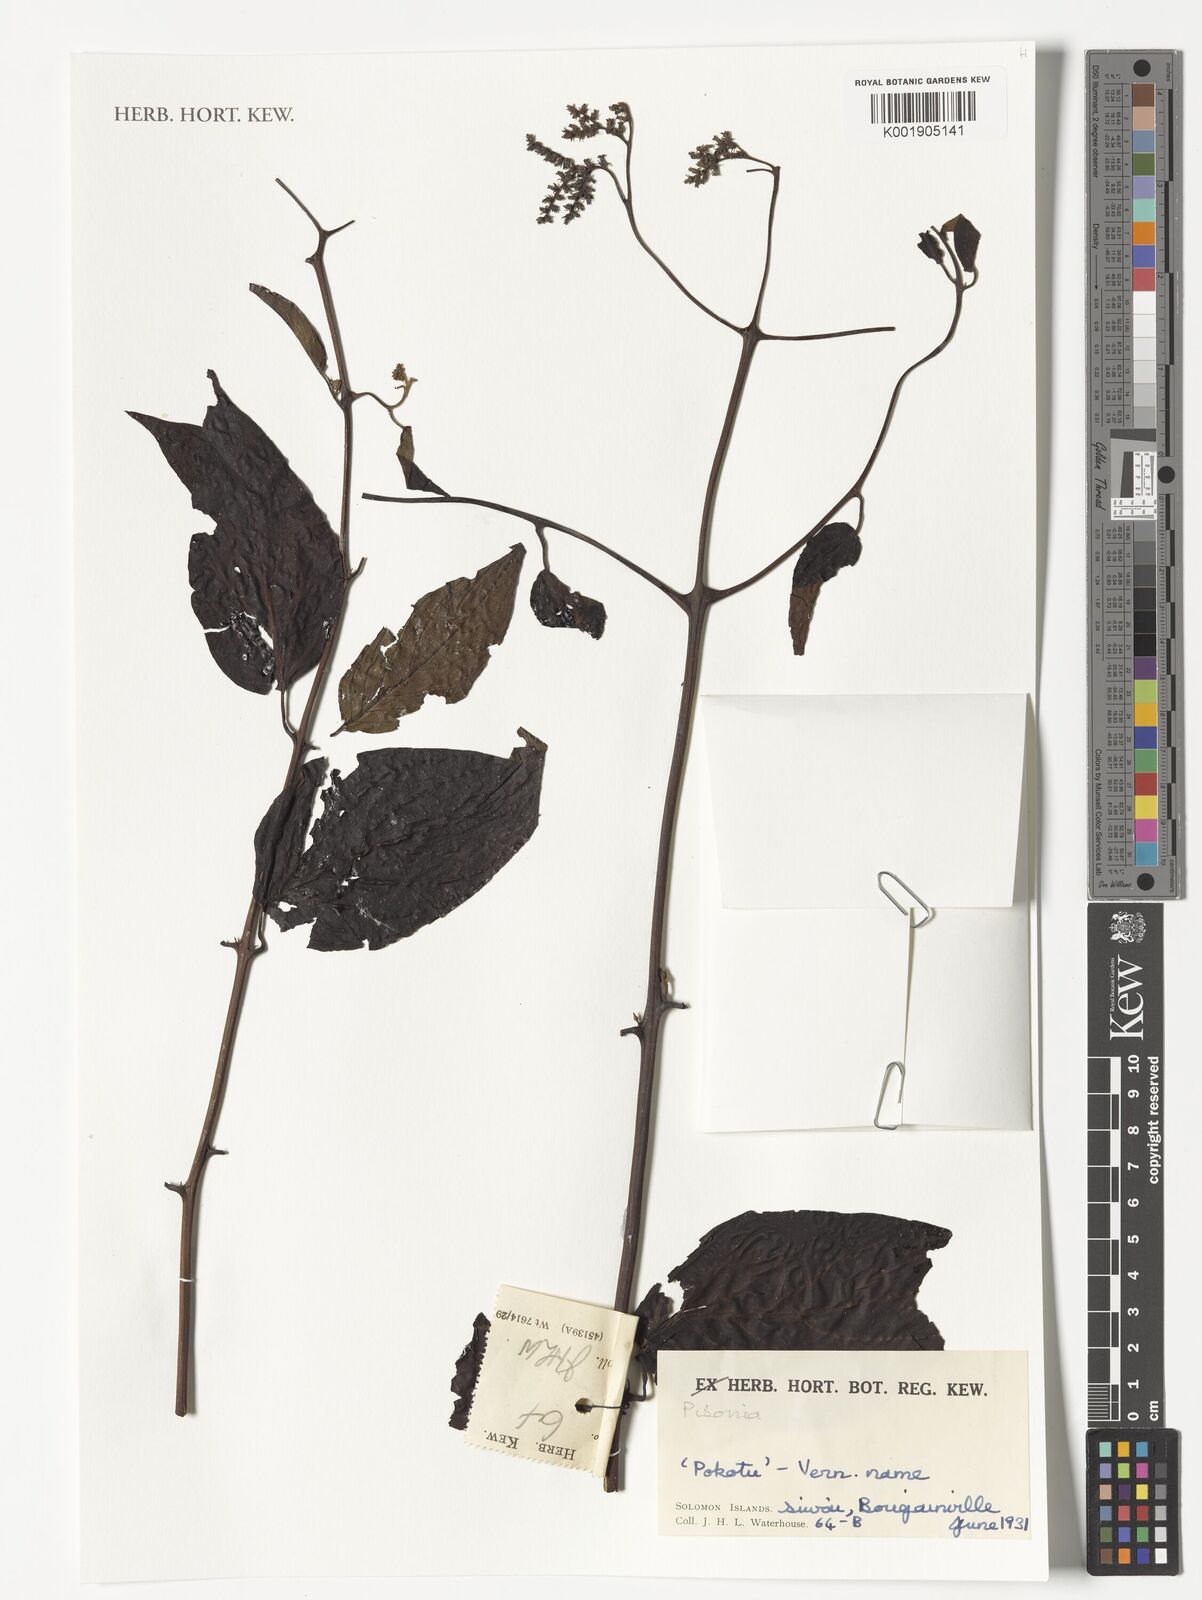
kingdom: Plantae
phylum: Tracheophyta
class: Magnoliopsida
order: Caryophyllales
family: Nyctaginaceae
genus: Pisonia
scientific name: Pisonia
